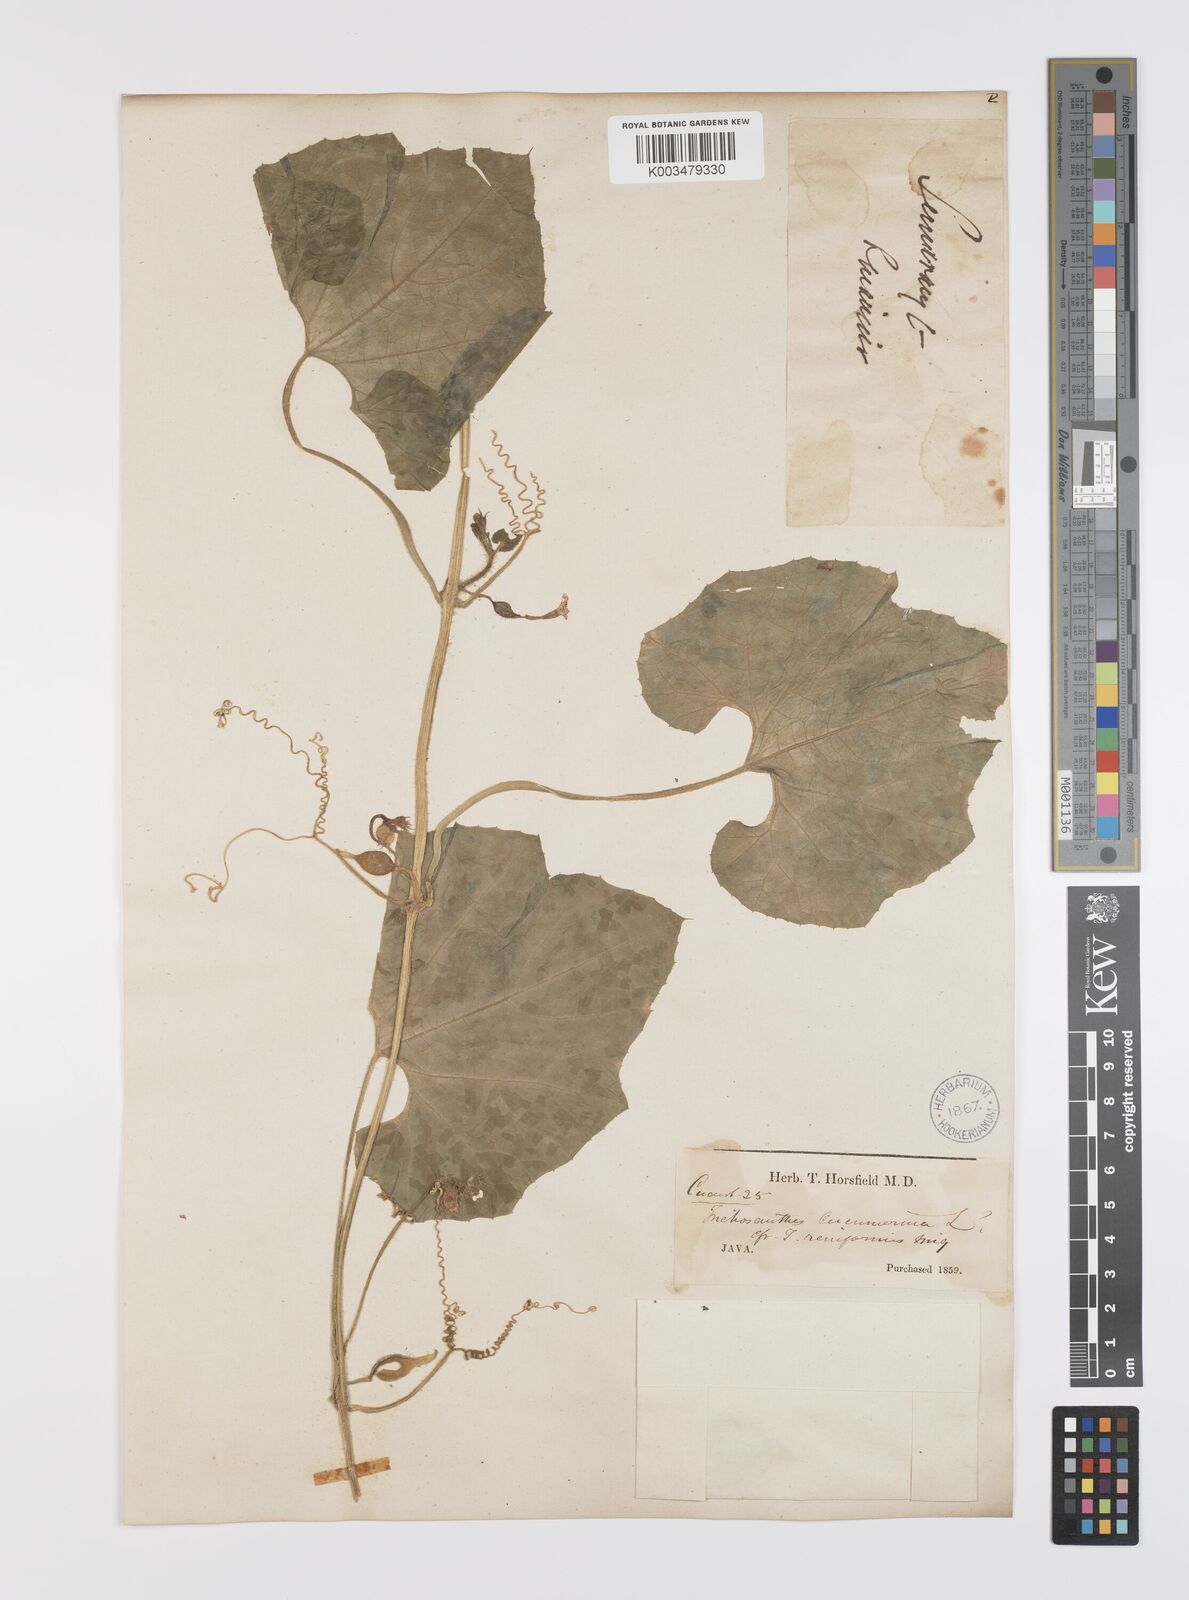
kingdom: Plantae
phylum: Tracheophyta
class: Magnoliopsida
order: Cucurbitales
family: Cucurbitaceae
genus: Trichosanthes
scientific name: Trichosanthes cucumerina
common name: Snakegourd
